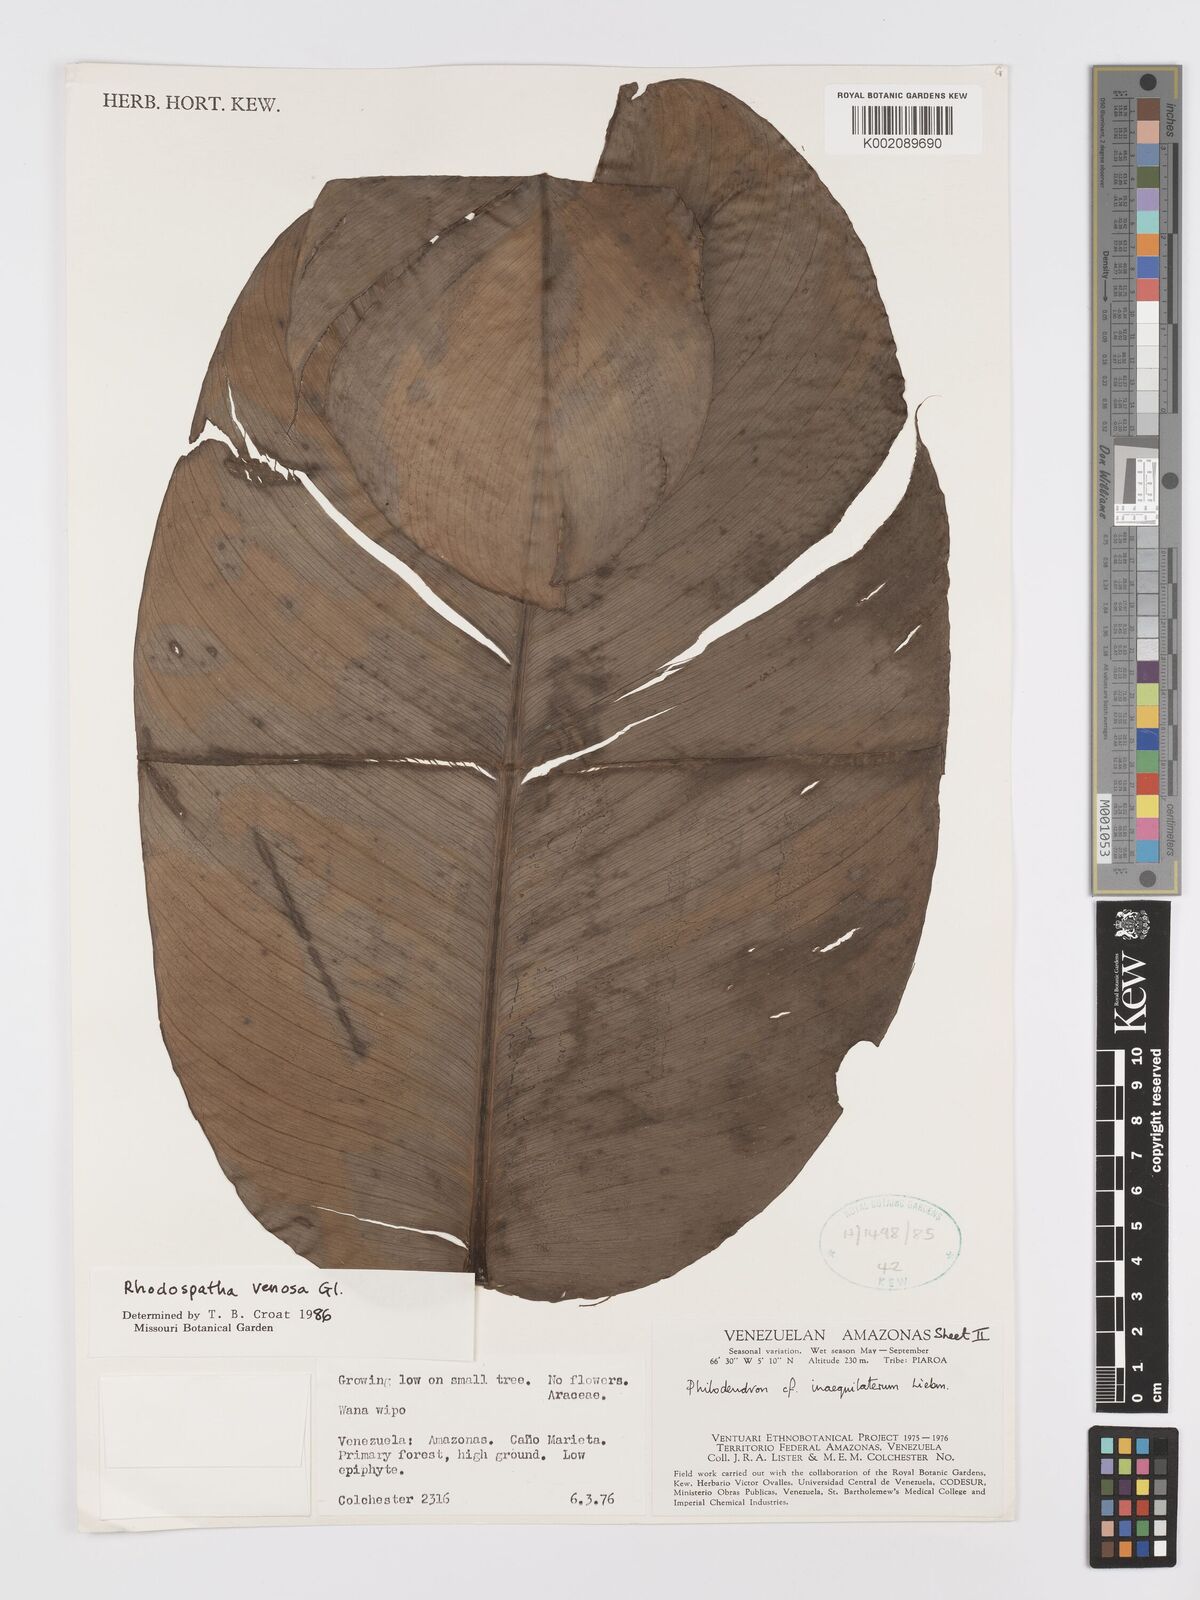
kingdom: Plantae
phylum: Tracheophyta
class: Liliopsida
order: Alismatales
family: Araceae
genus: Rhodospatha
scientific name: Rhodospatha venosa
